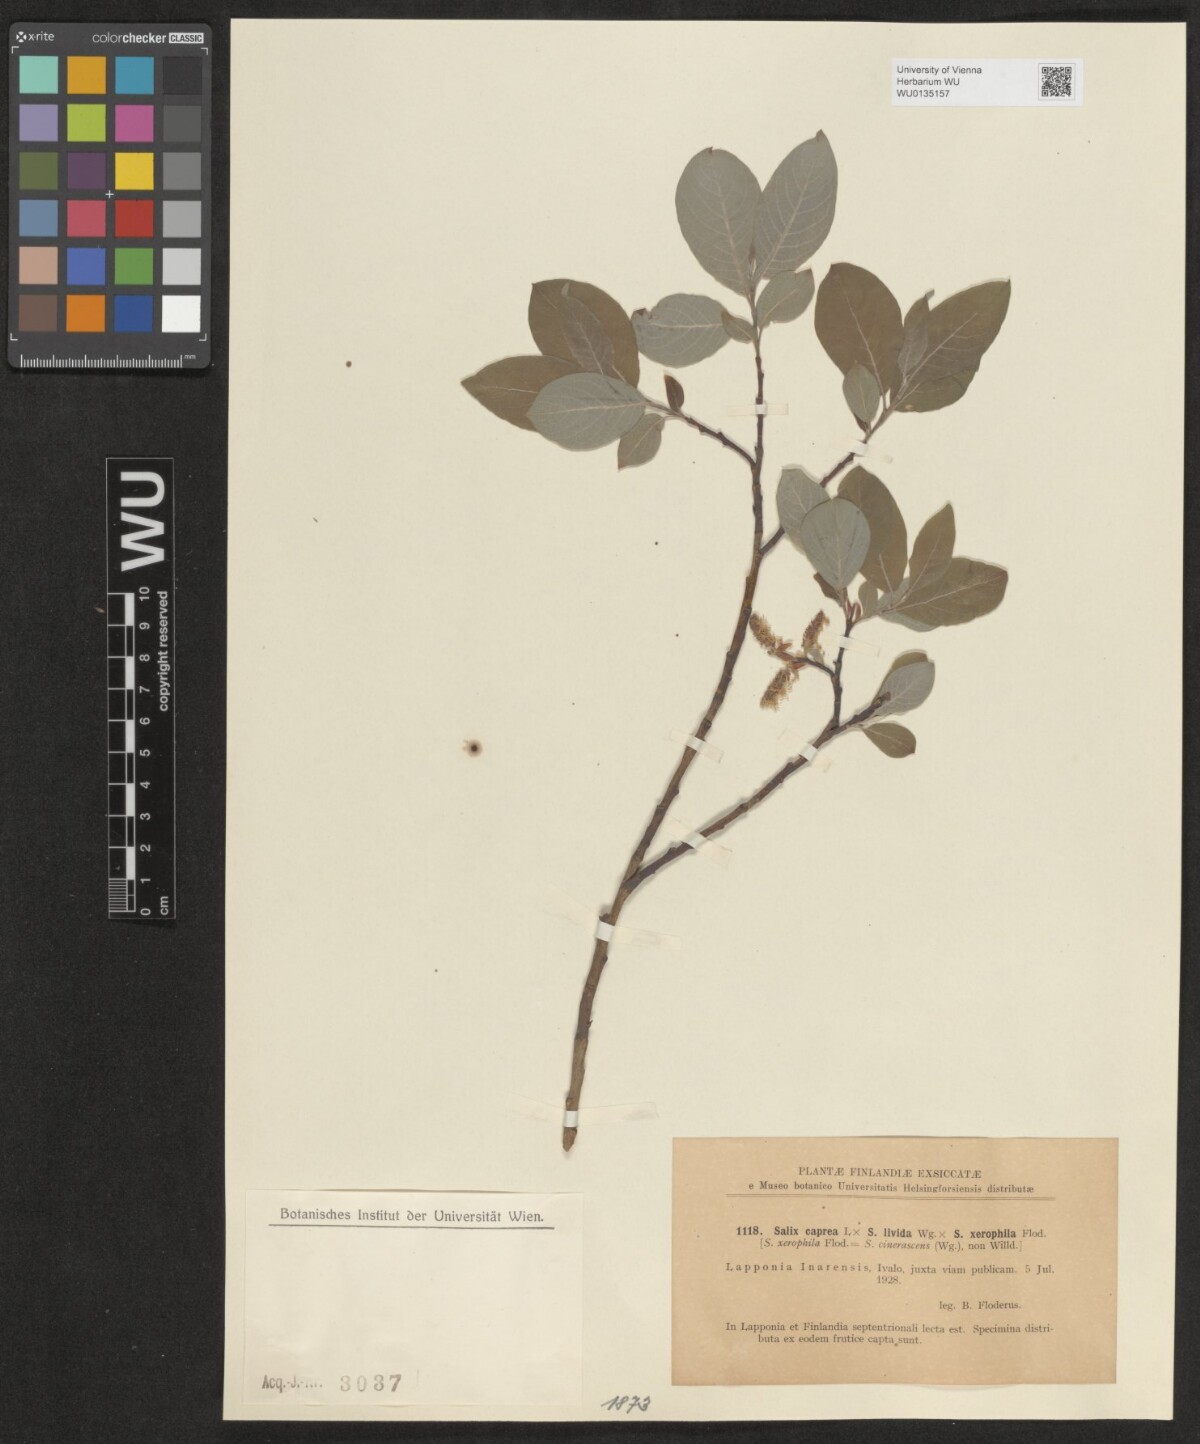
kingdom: Plantae
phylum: Tracheophyta
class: Magnoliopsida
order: Malpighiales
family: Salicaceae
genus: Salix
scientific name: Salix
